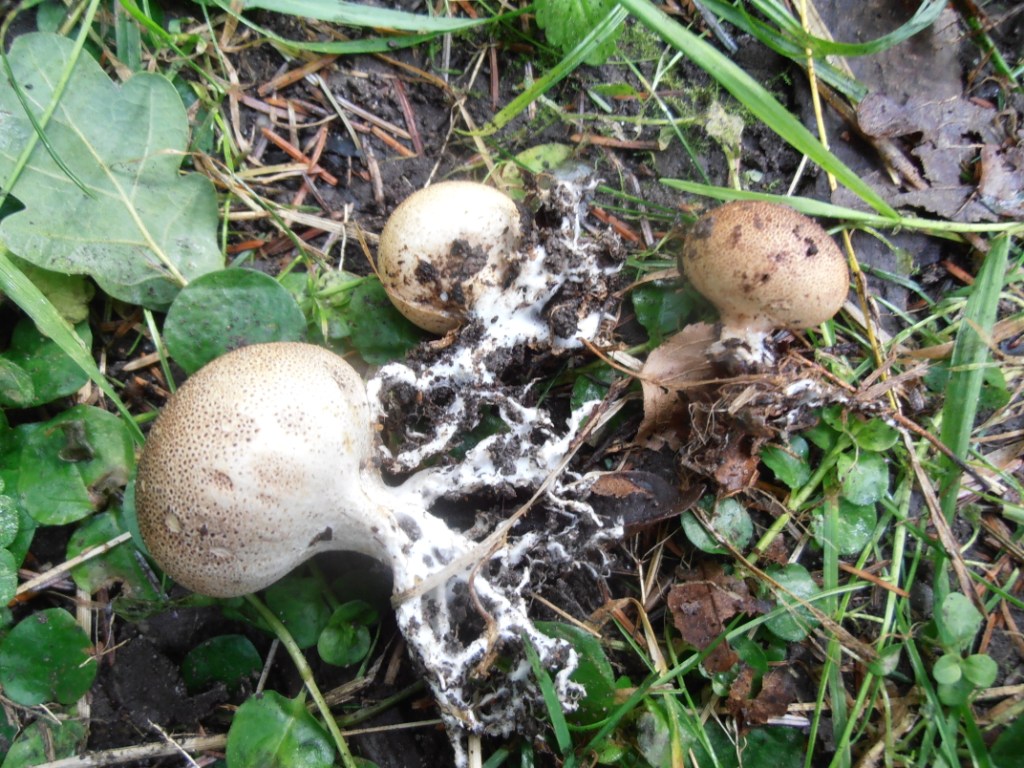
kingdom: Fungi
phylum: Basidiomycota
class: Agaricomycetes
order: Boletales
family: Sclerodermataceae
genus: Scleroderma
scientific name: Scleroderma verrucosum
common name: stilket bruskbold
